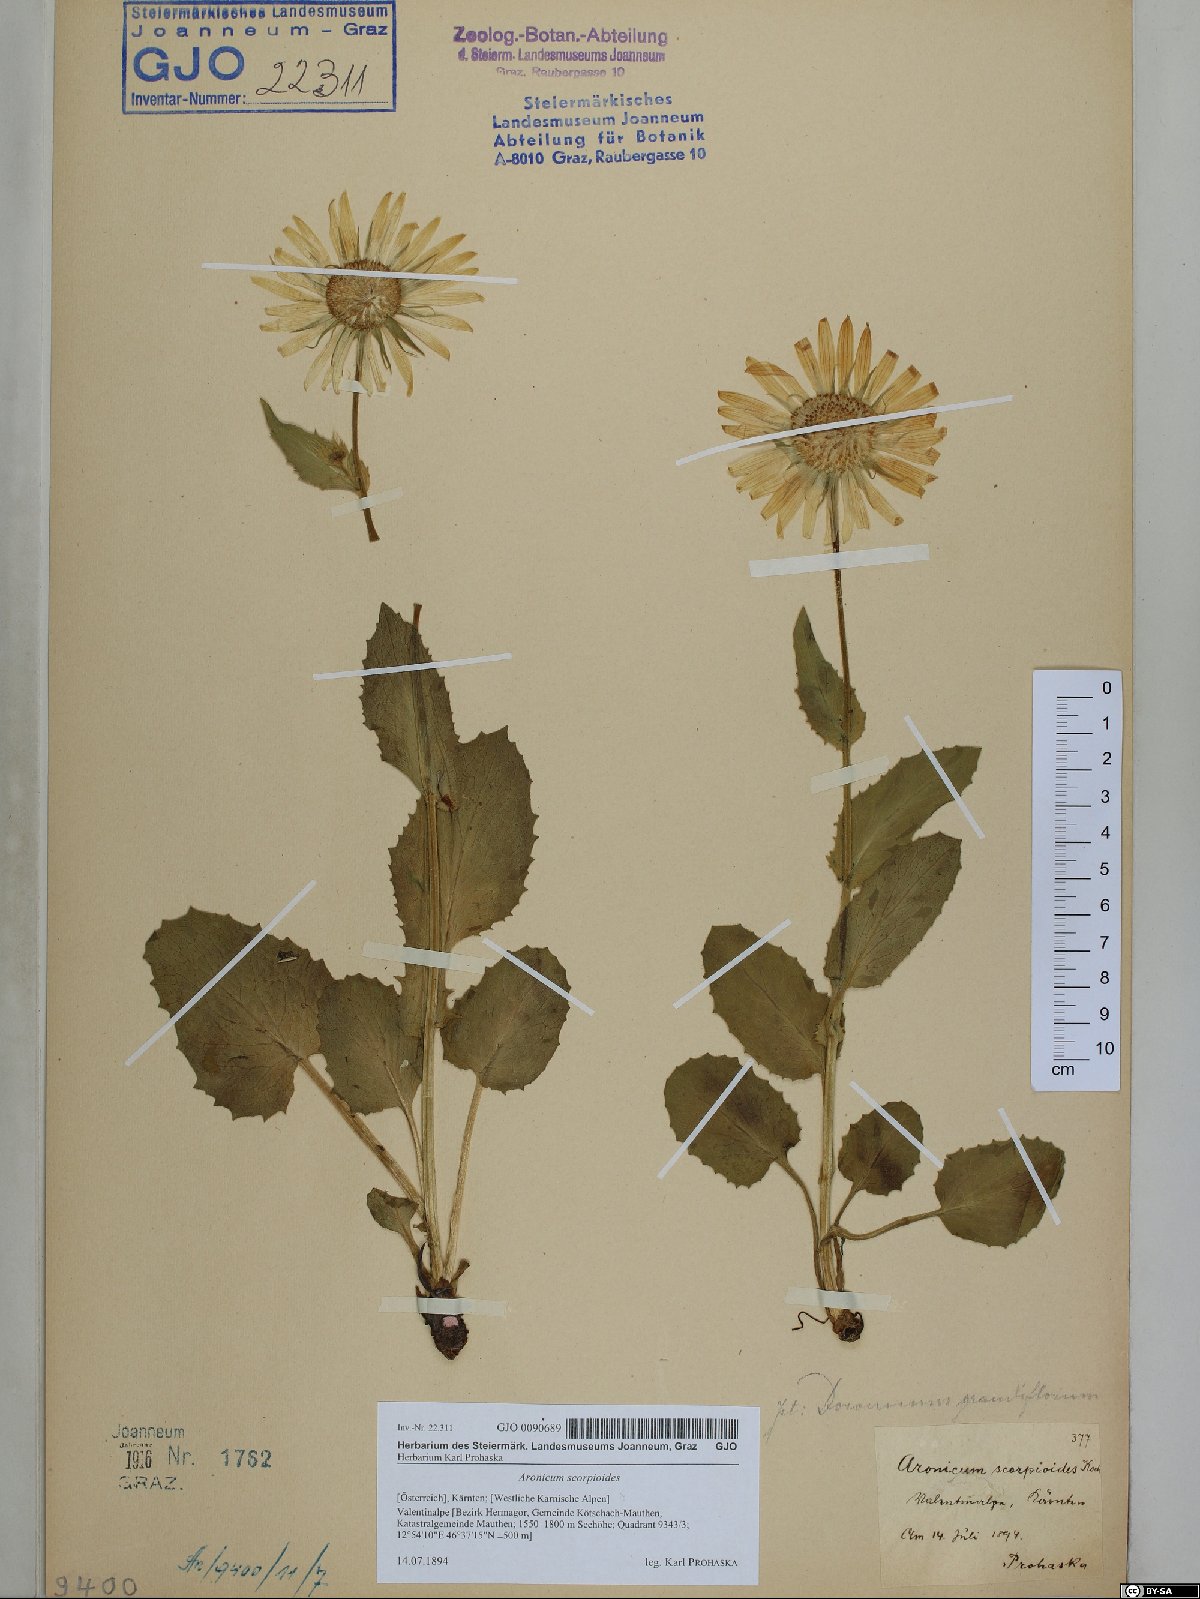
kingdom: Plantae
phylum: Tracheophyta
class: Magnoliopsida
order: Asterales
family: Asteraceae
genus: Doronicum
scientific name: Doronicum grandiflorum
